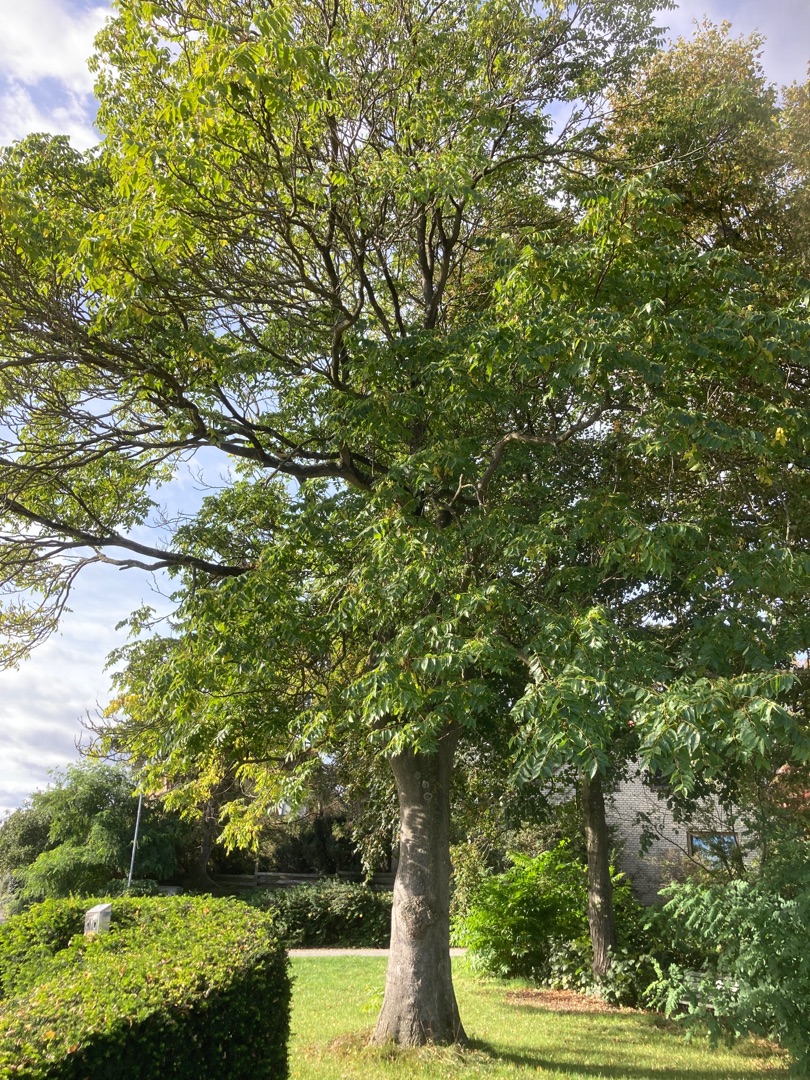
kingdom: Plantae
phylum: Tracheophyta
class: Magnoliopsida
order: Lamiales
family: Oleaceae
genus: Fraxinus
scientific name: Fraxinus excelsior
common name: Ask
